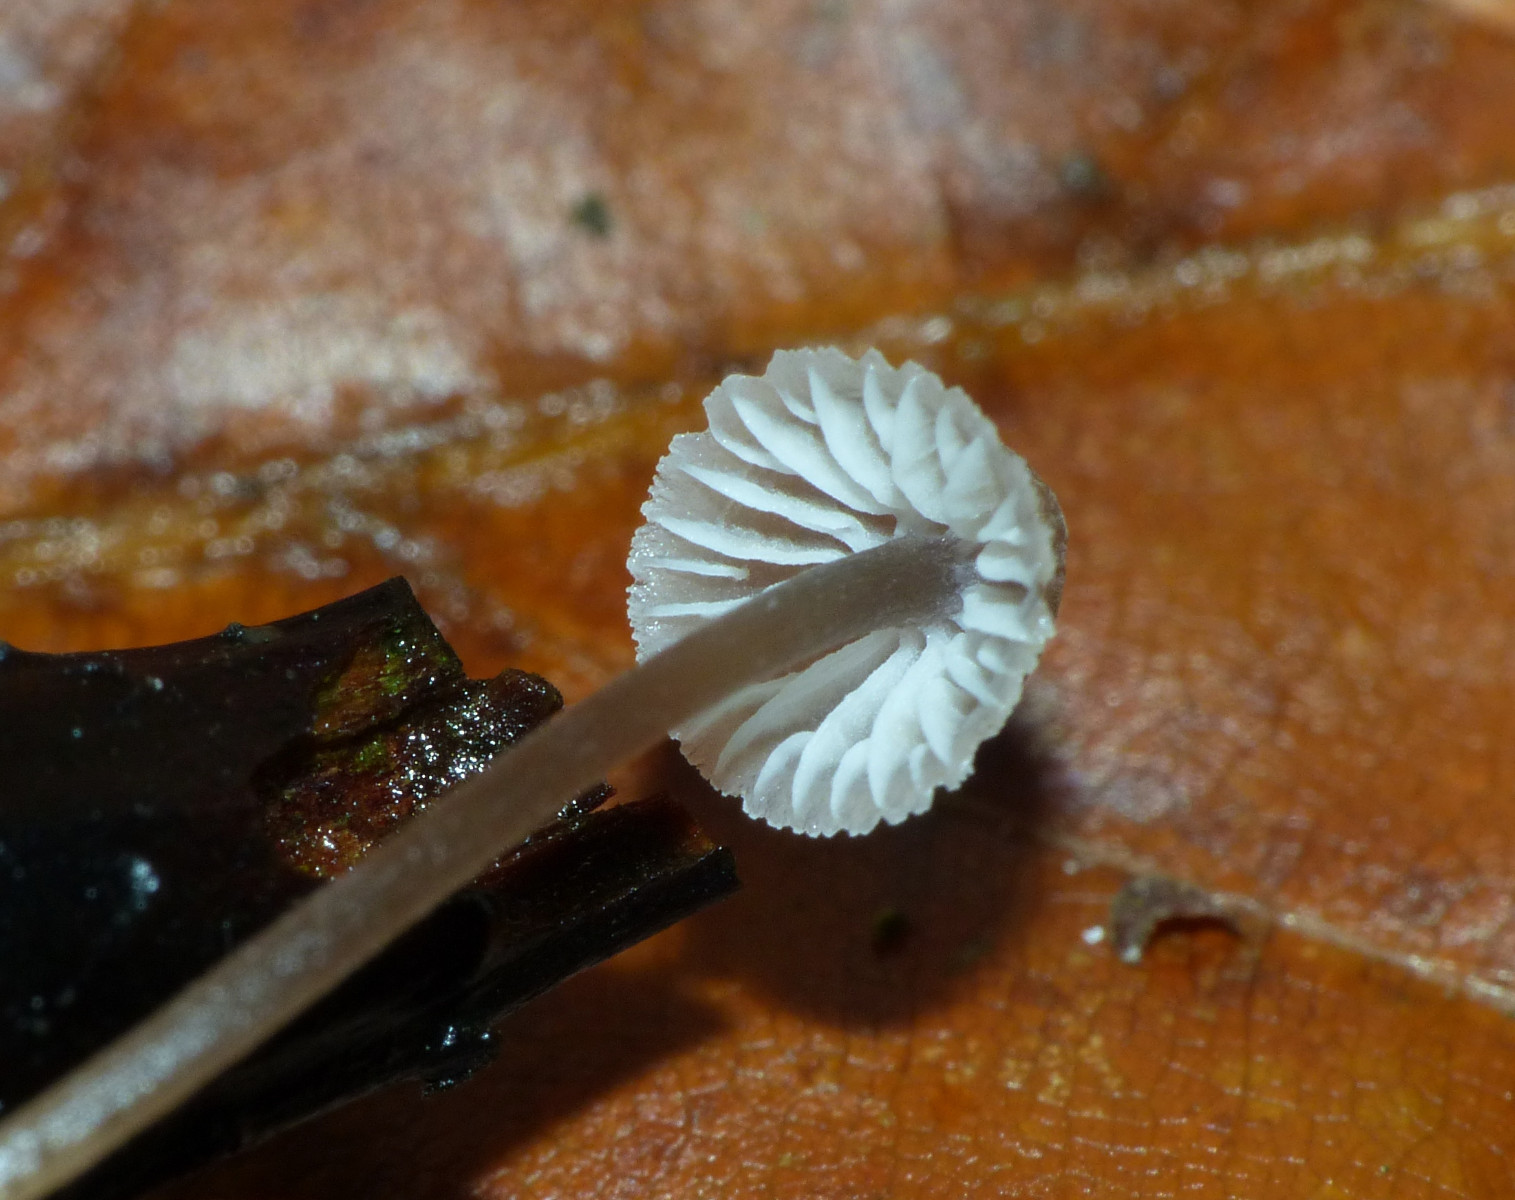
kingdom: Fungi
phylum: Basidiomycota
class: Agaricomycetes
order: Agaricales
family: Mycenaceae
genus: Mycena
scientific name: Mycena leptocephala
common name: klor-huesvamp
